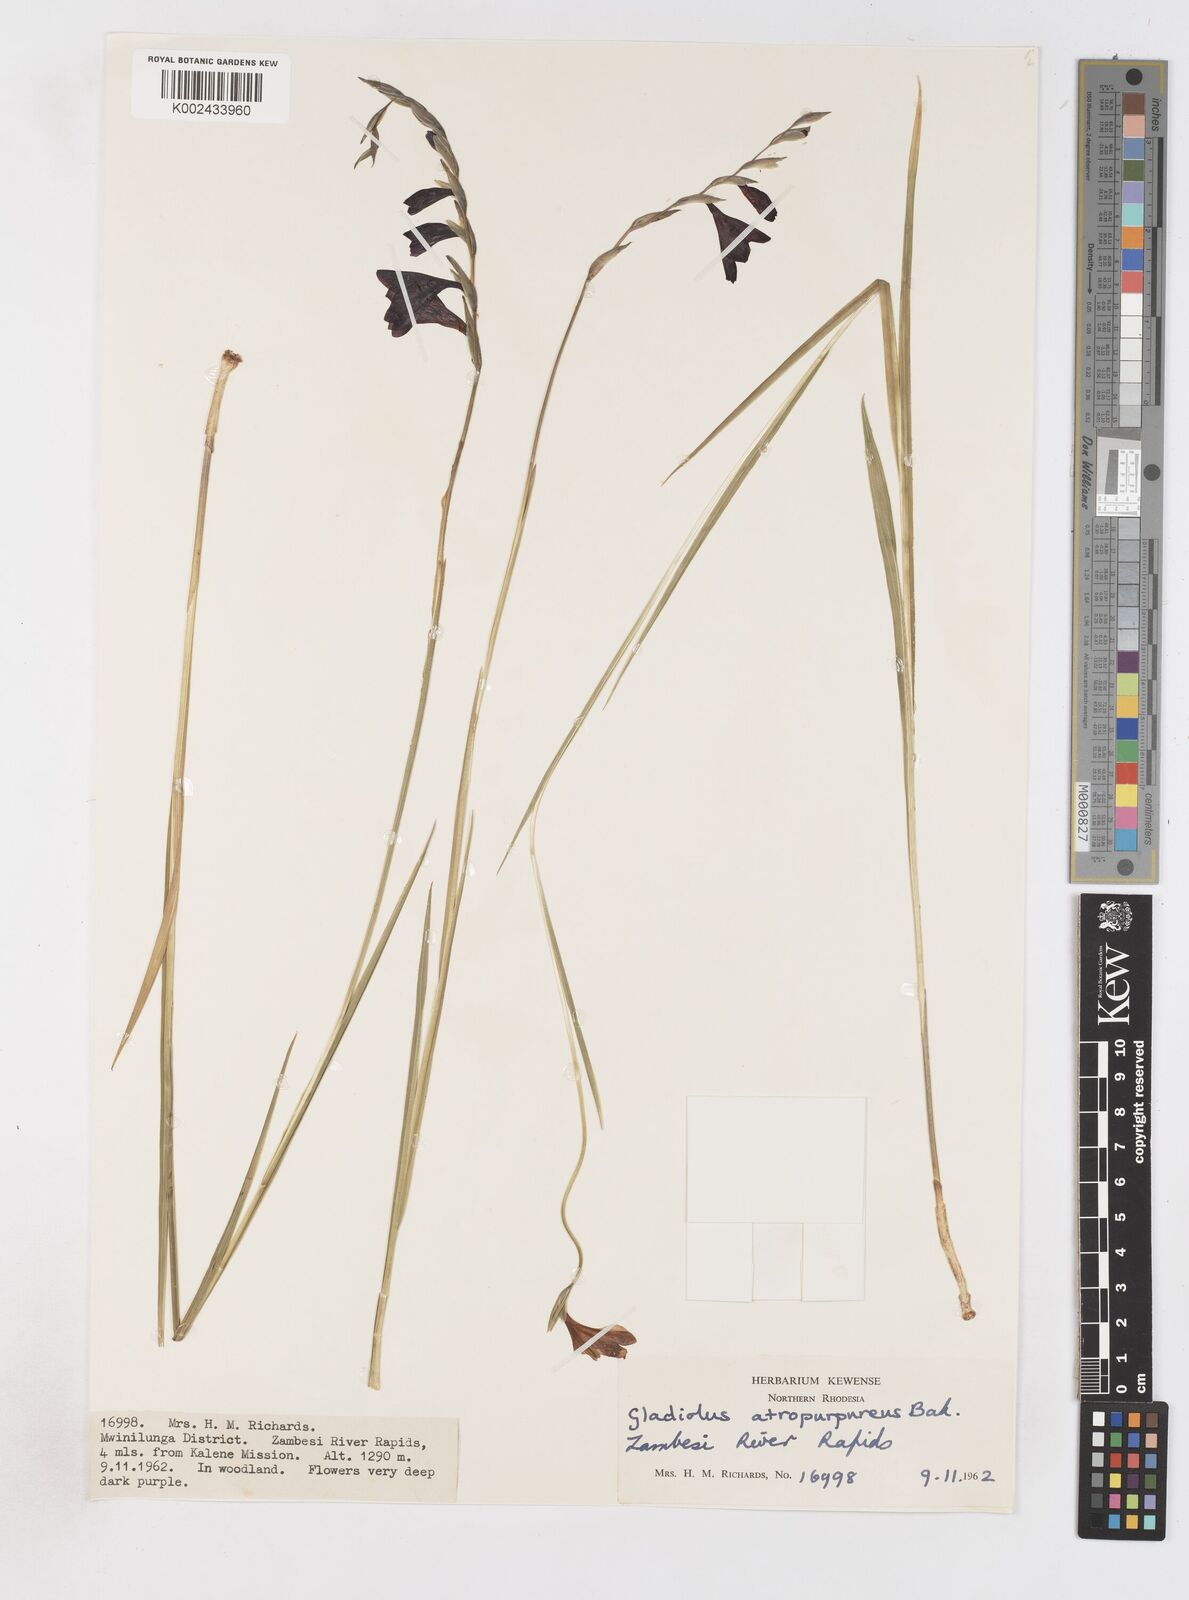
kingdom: Plantae
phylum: Tracheophyta
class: Liliopsida
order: Asparagales
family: Iridaceae
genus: Gladiolus
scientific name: Gladiolus atropurpureus
